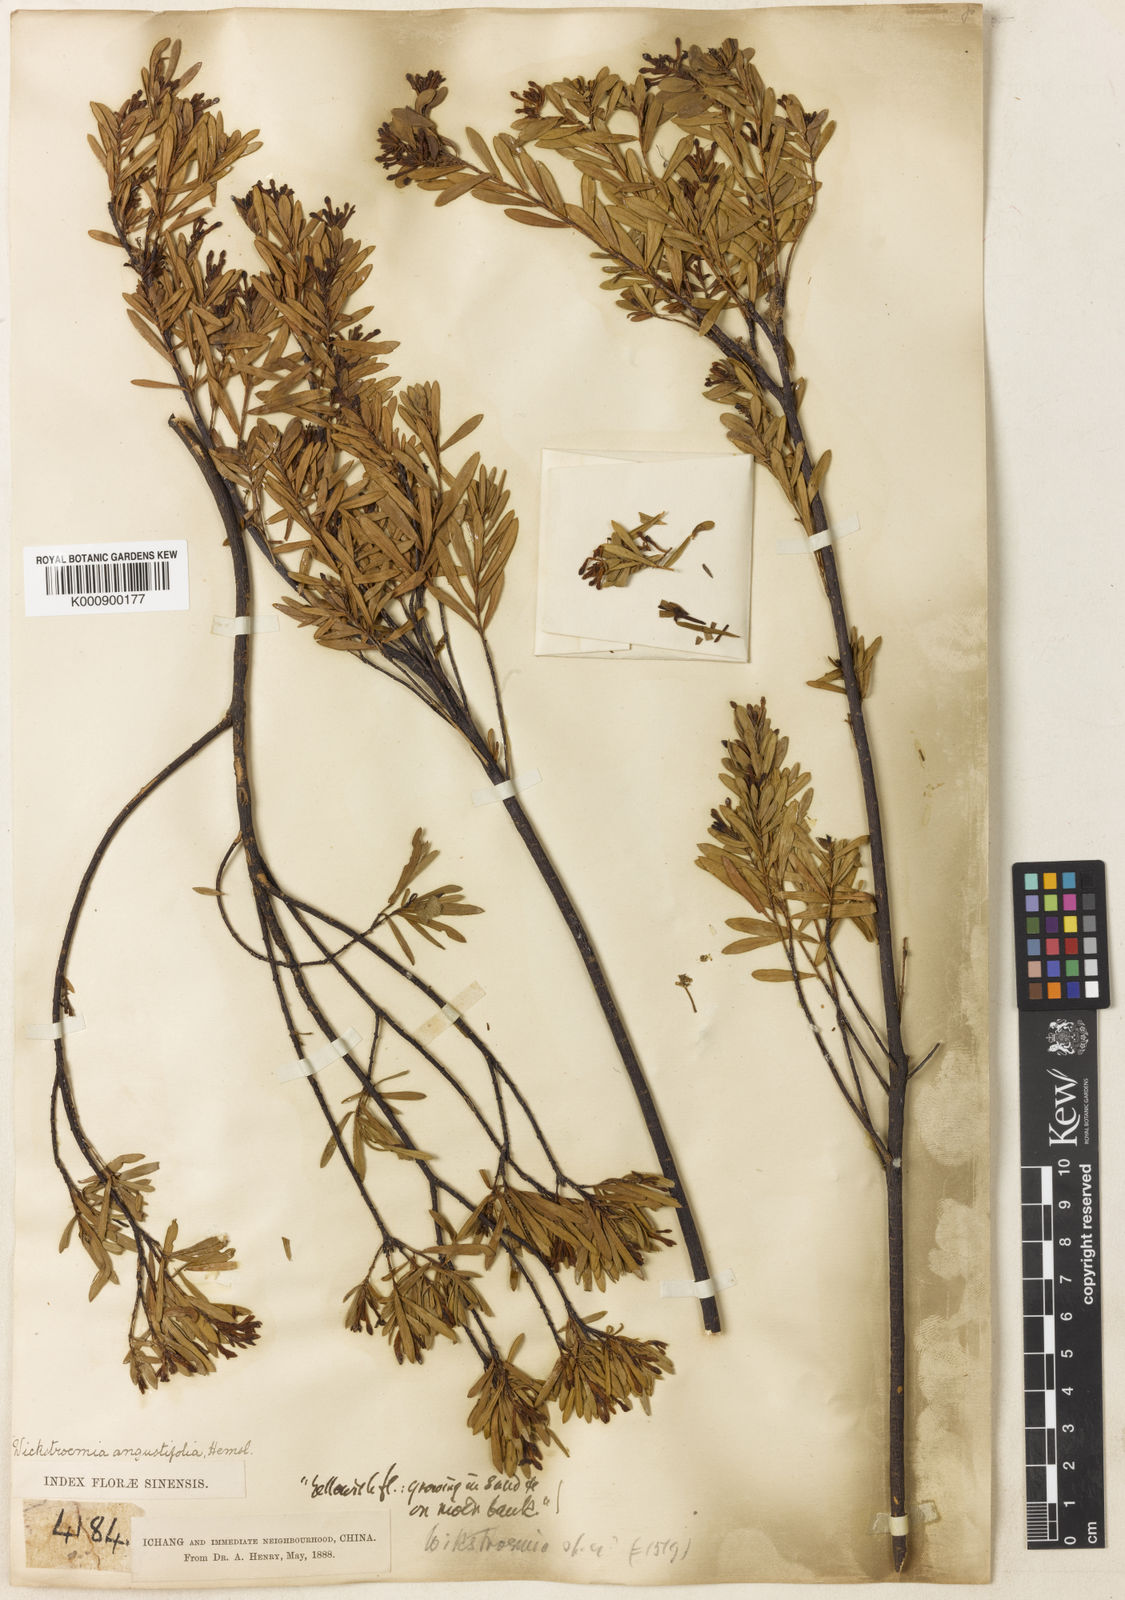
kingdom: Plantae
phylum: Tracheophyta
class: Magnoliopsida
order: Malvales
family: Thymelaeaceae
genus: Wikstroemia
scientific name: Wikstroemia angustifolia
